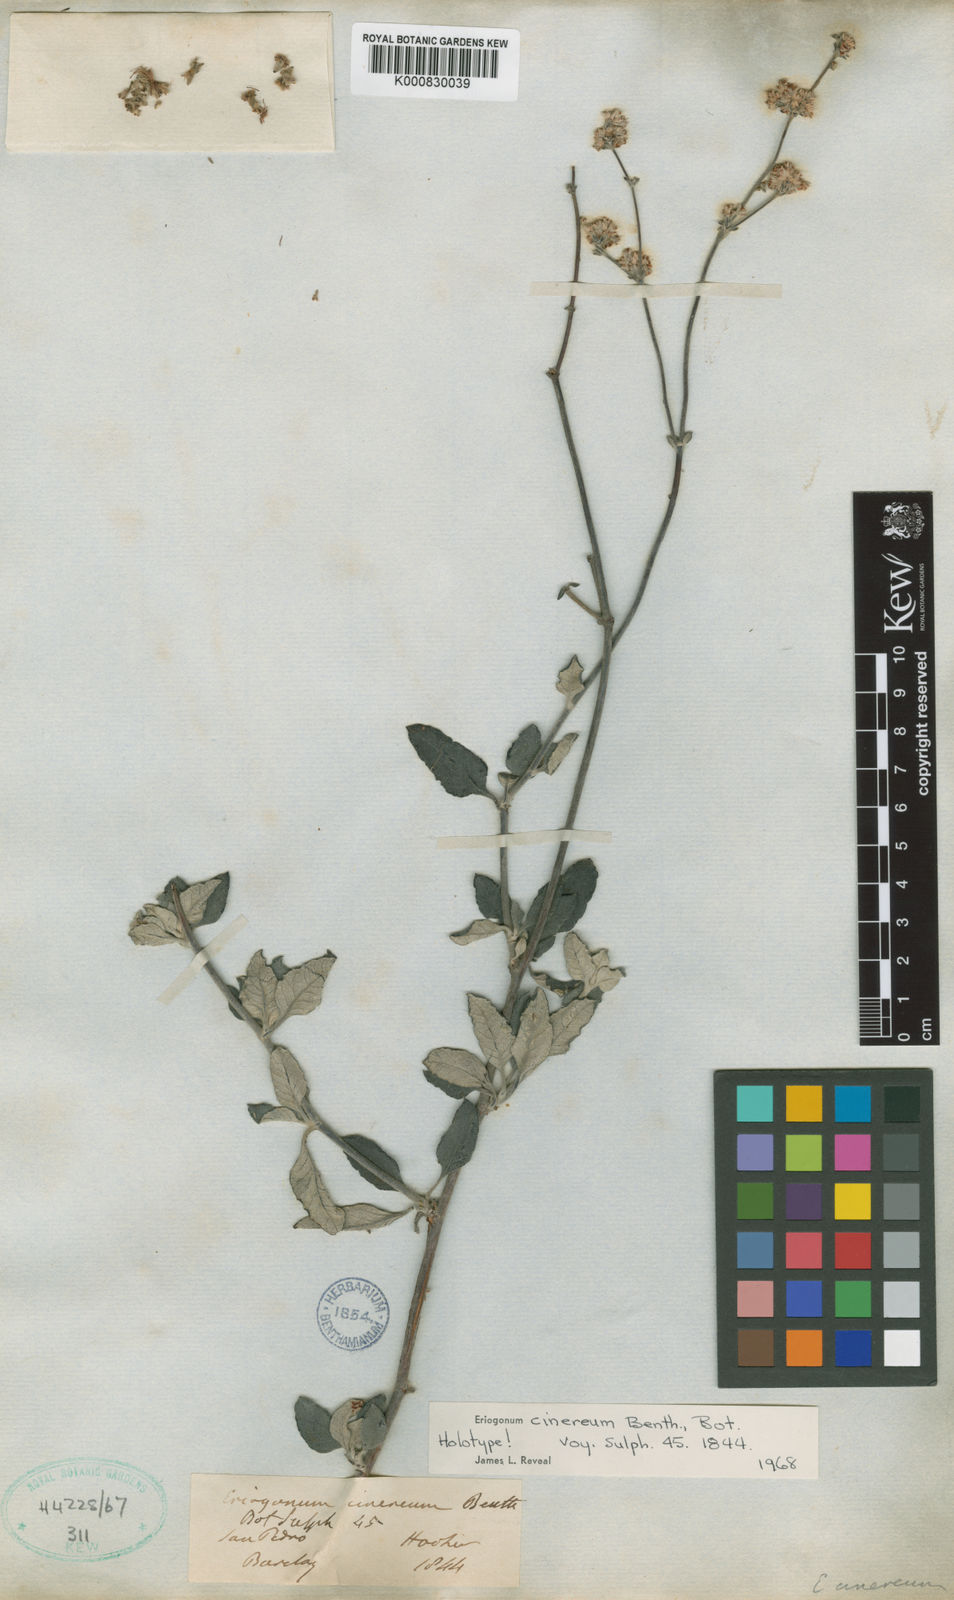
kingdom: Plantae
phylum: Tracheophyta
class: Magnoliopsida
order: Caryophyllales
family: Polygonaceae
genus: Eriogonum
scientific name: Eriogonum cinereum
